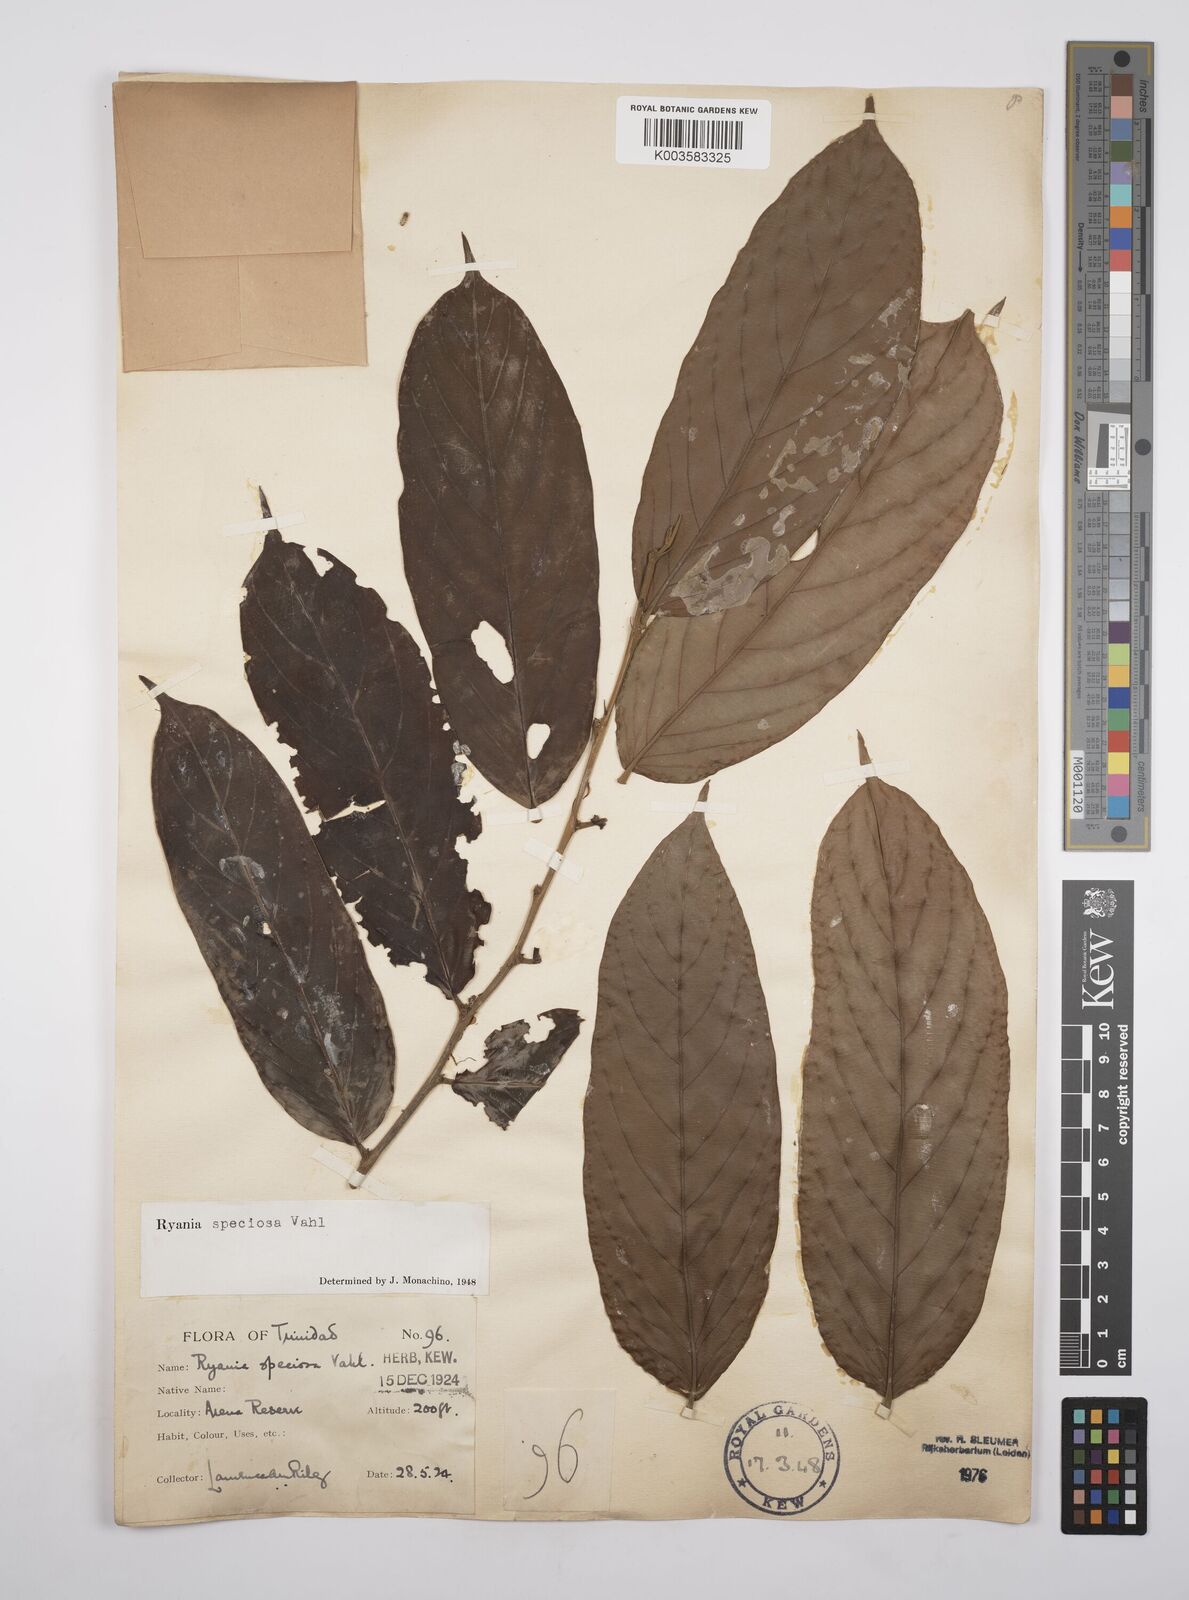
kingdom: Plantae
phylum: Tracheophyta
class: Magnoliopsida
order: Malpighiales
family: Salicaceae
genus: Ryania
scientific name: Ryania speciosa
